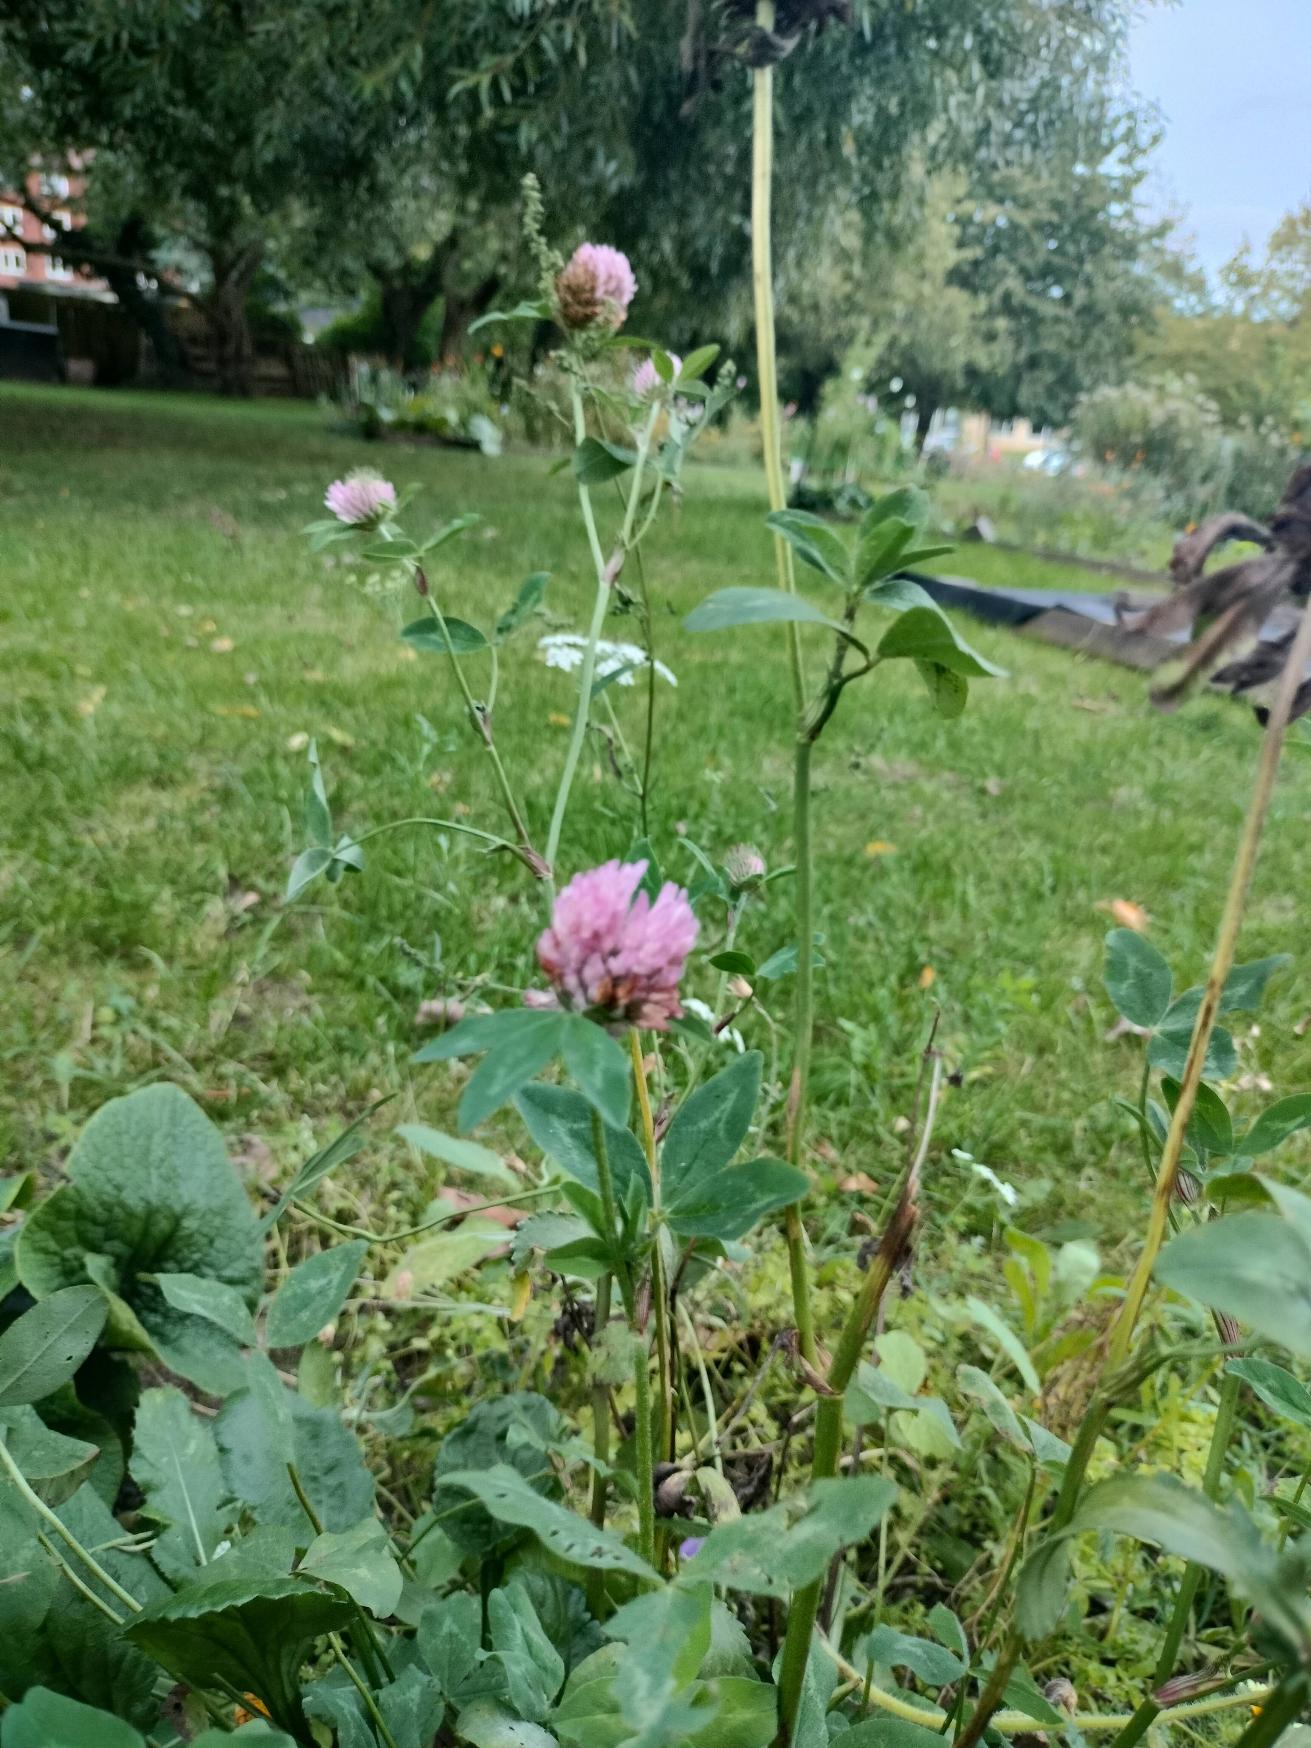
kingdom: Plantae
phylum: Tracheophyta
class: Magnoliopsida
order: Fabales
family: Fabaceae
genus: Trifolium
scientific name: Trifolium pratense
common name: Rød-kløver
